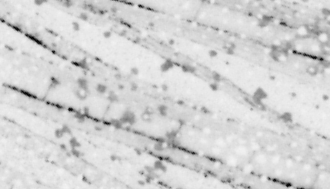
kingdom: Animalia
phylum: Chordata
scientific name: Chordata
